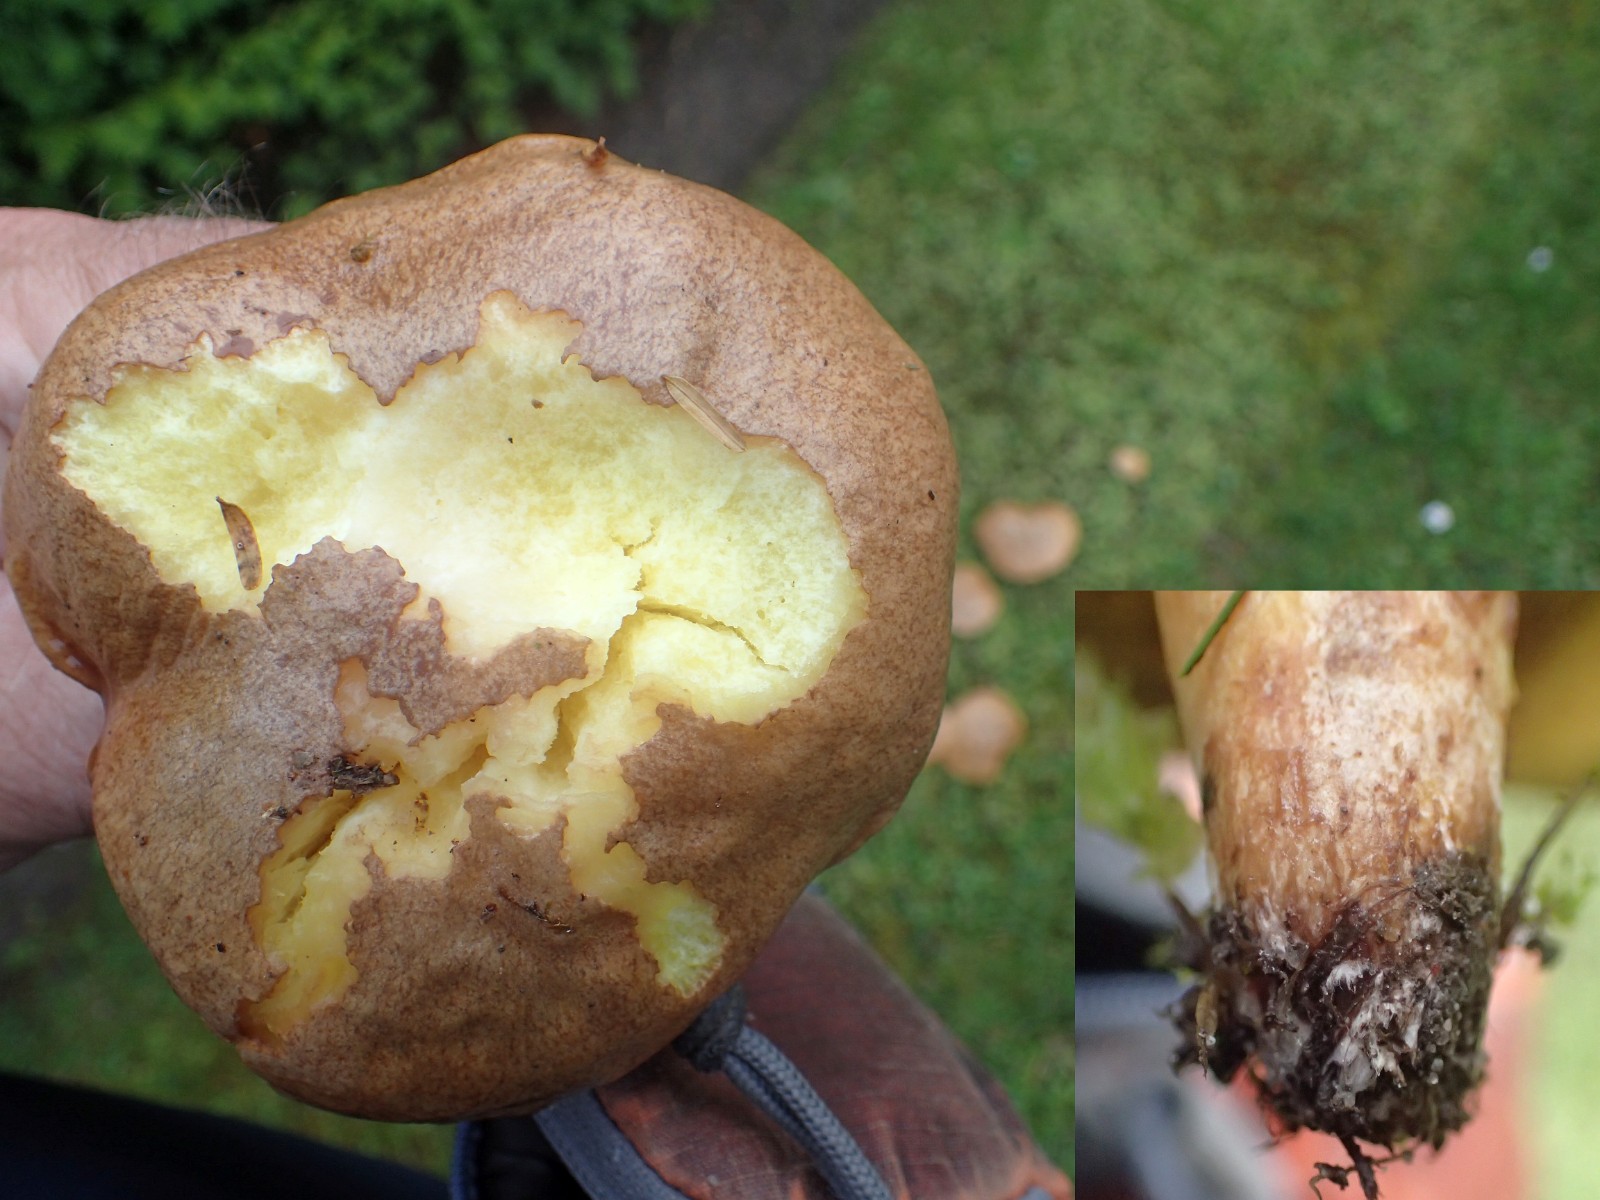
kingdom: Fungi
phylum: Basidiomycota
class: Agaricomycetes
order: Boletales
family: Suillaceae
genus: Suillus
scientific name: Suillus collinitus
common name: rosafodet slimrørhat
